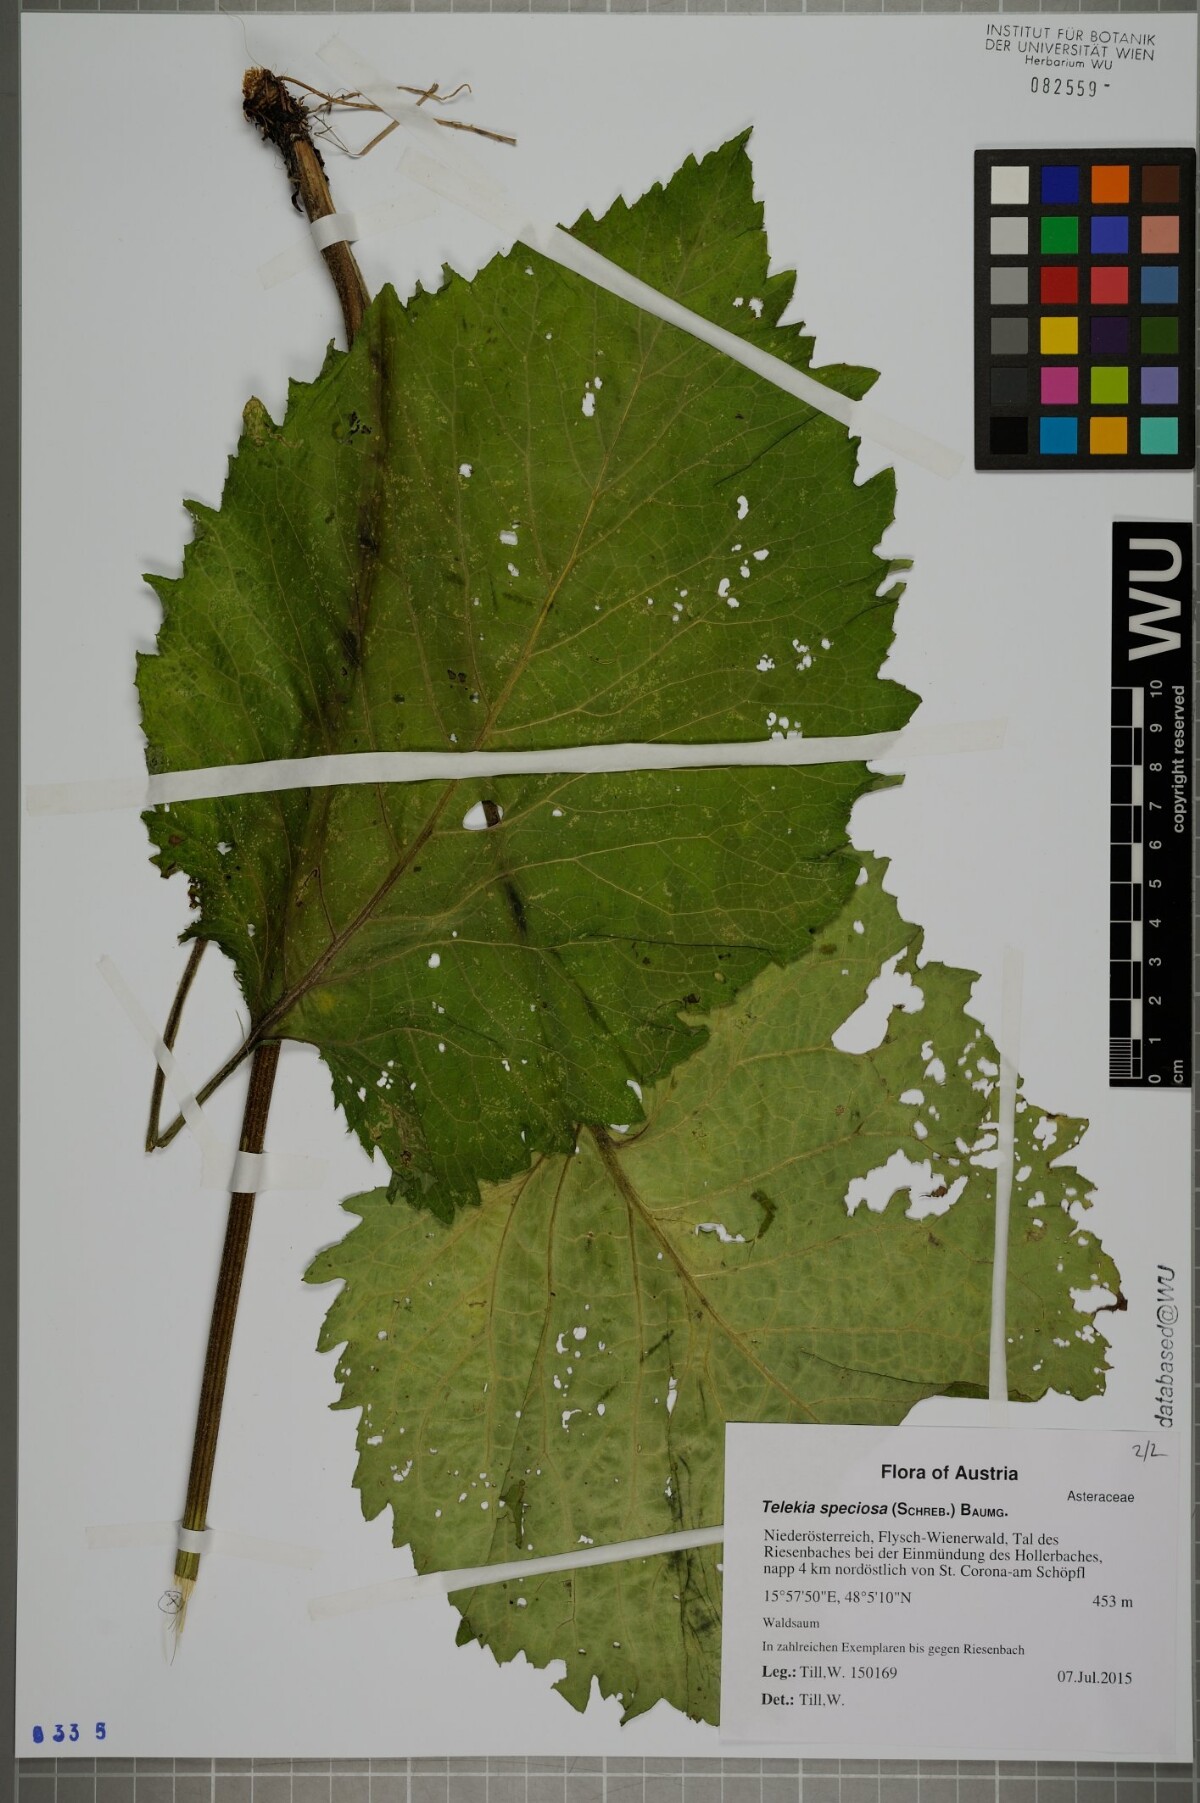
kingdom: Plantae
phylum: Tracheophyta
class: Magnoliopsida
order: Asterales
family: Asteraceae
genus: Telekia
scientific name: Telekia speciosa
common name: Yellow oxeye
